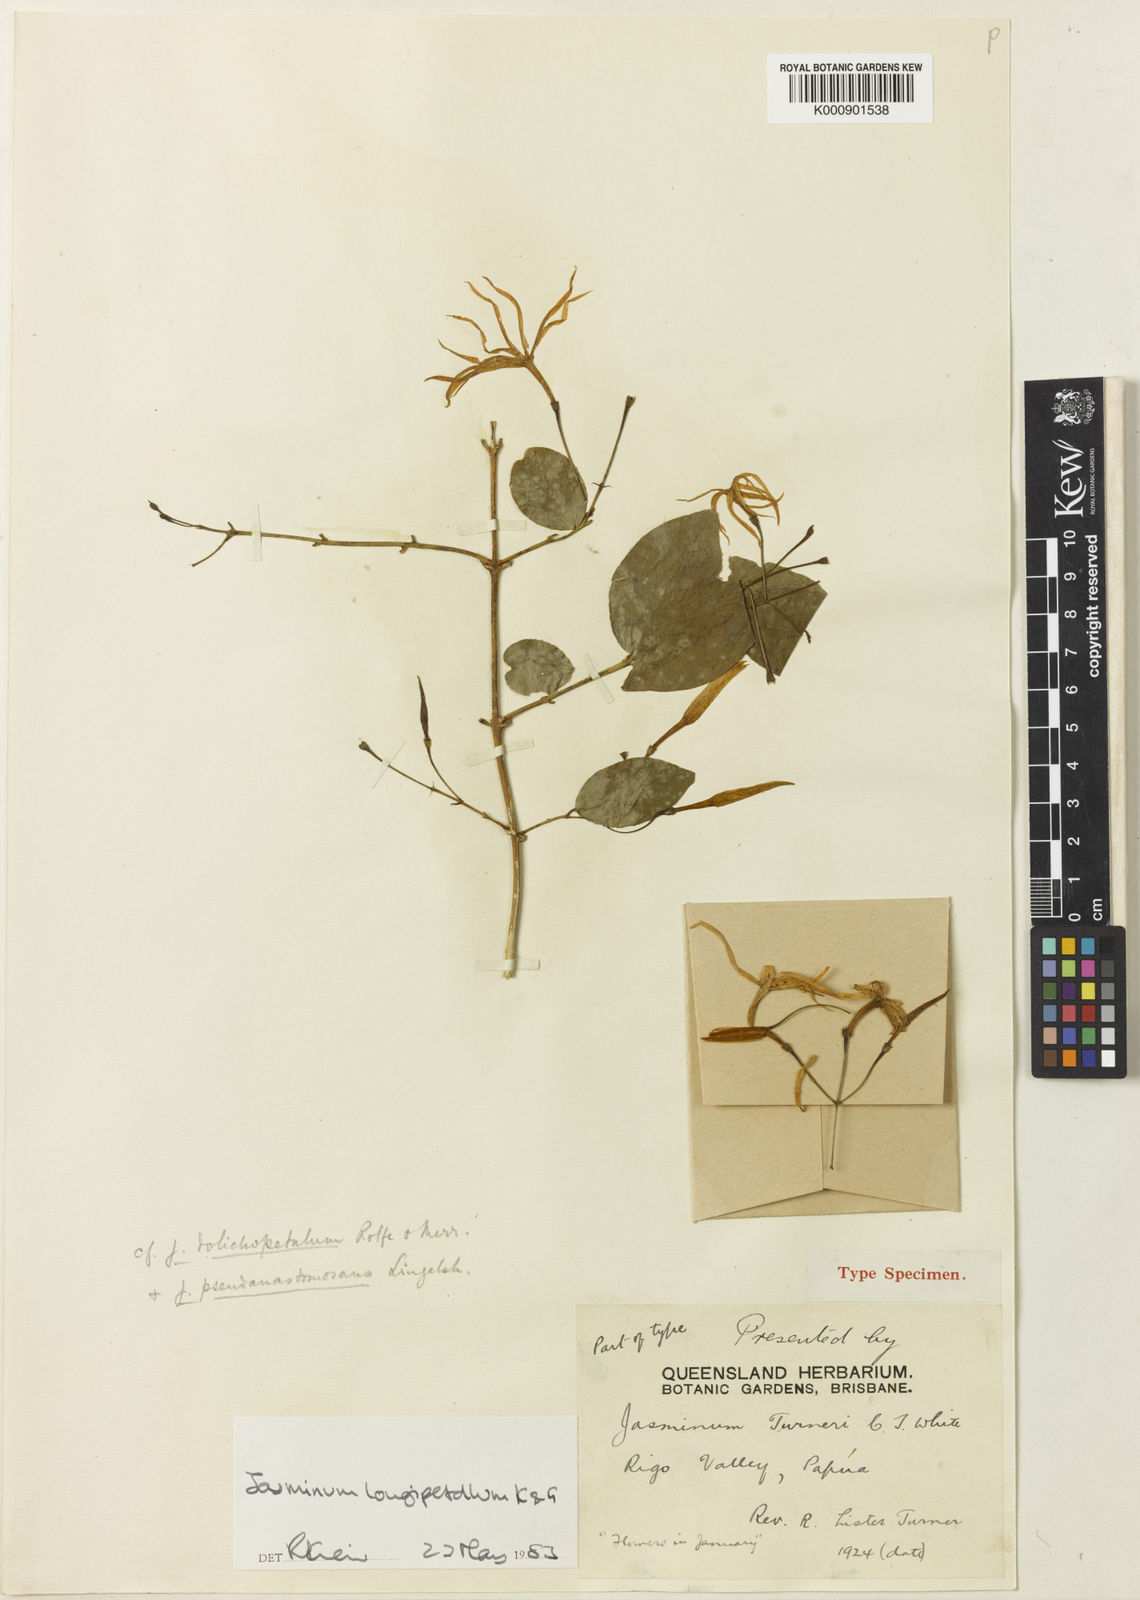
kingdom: Plantae
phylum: Tracheophyta
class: Magnoliopsida
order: Lamiales
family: Oleaceae
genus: Jasminum
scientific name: Jasminum turneri
